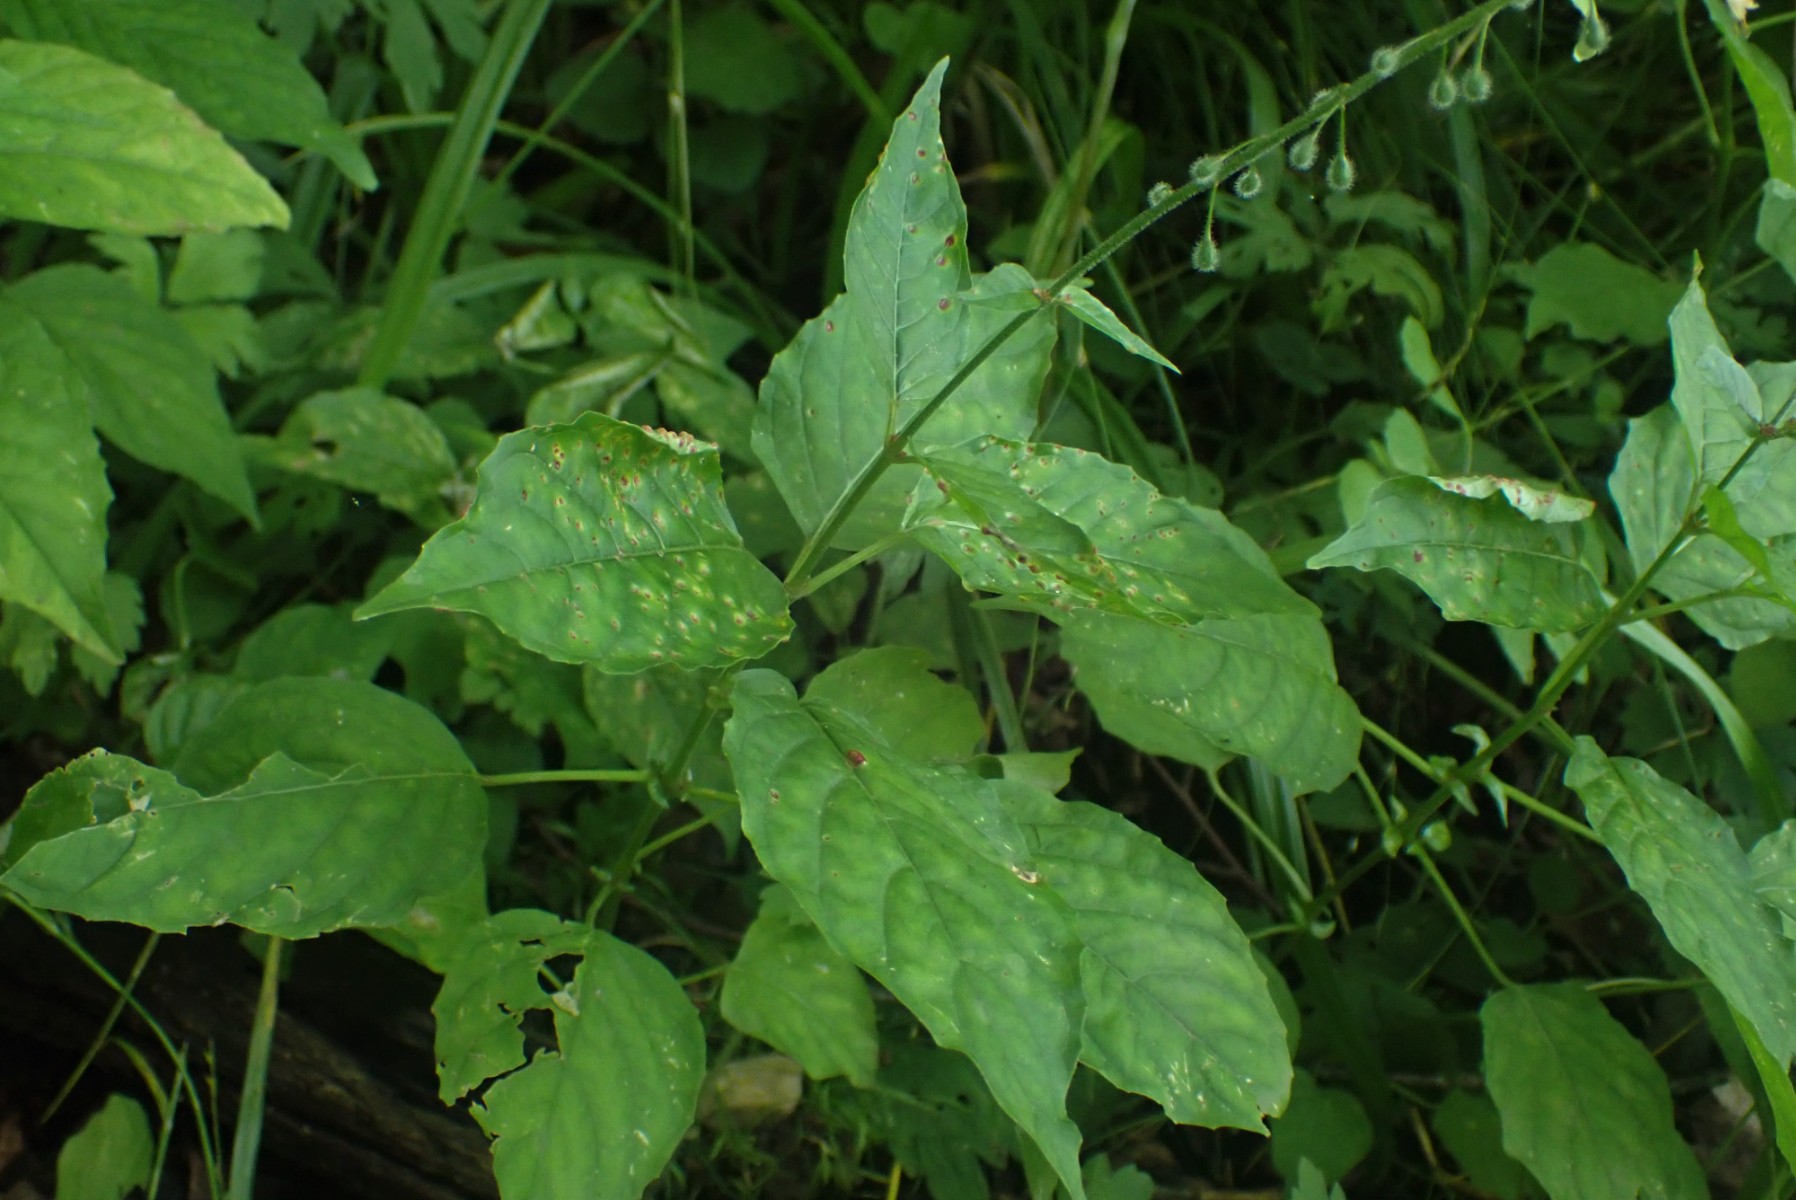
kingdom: Fungi
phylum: Basidiomycota
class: Pucciniomycetes
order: Pucciniales
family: Pucciniaceae
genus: Puccinia
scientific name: Puccinia circaeae
